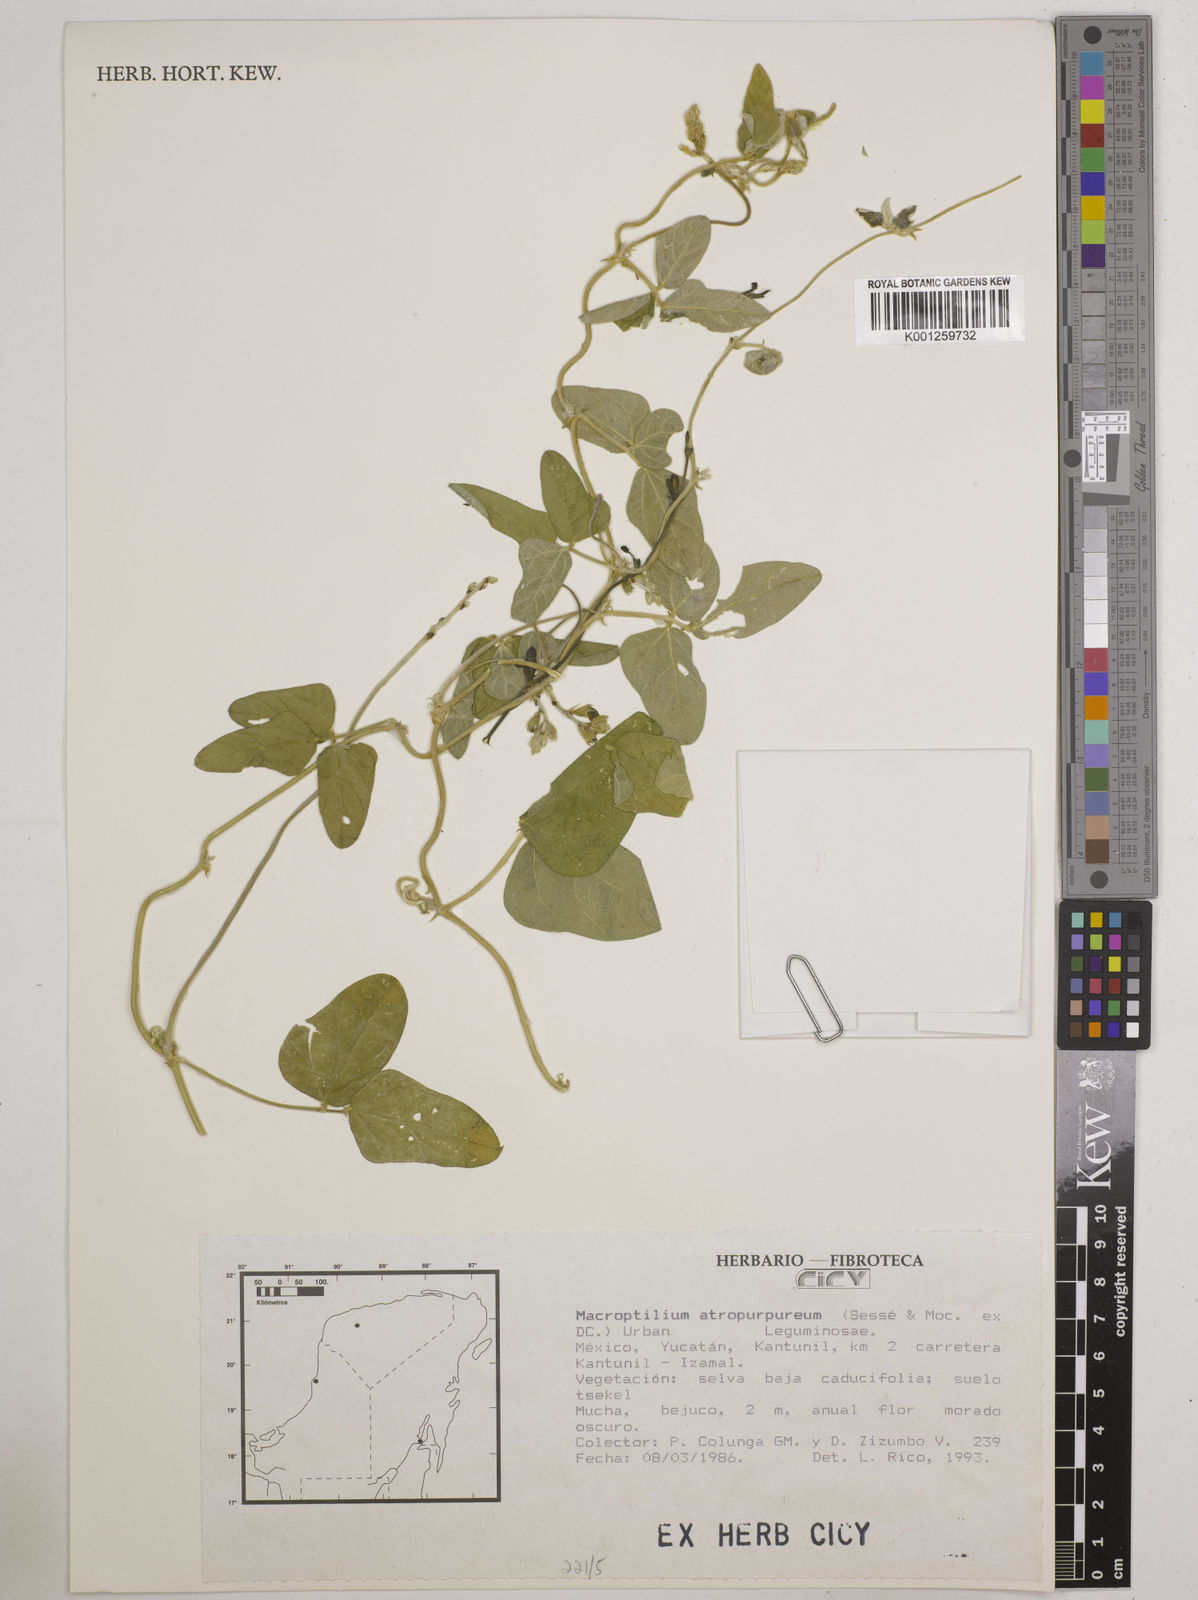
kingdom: Plantae
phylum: Tracheophyta
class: Magnoliopsida
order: Fabales
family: Fabaceae
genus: Macroptilium
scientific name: Macroptilium atropurpureum
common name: Purple bushbean
